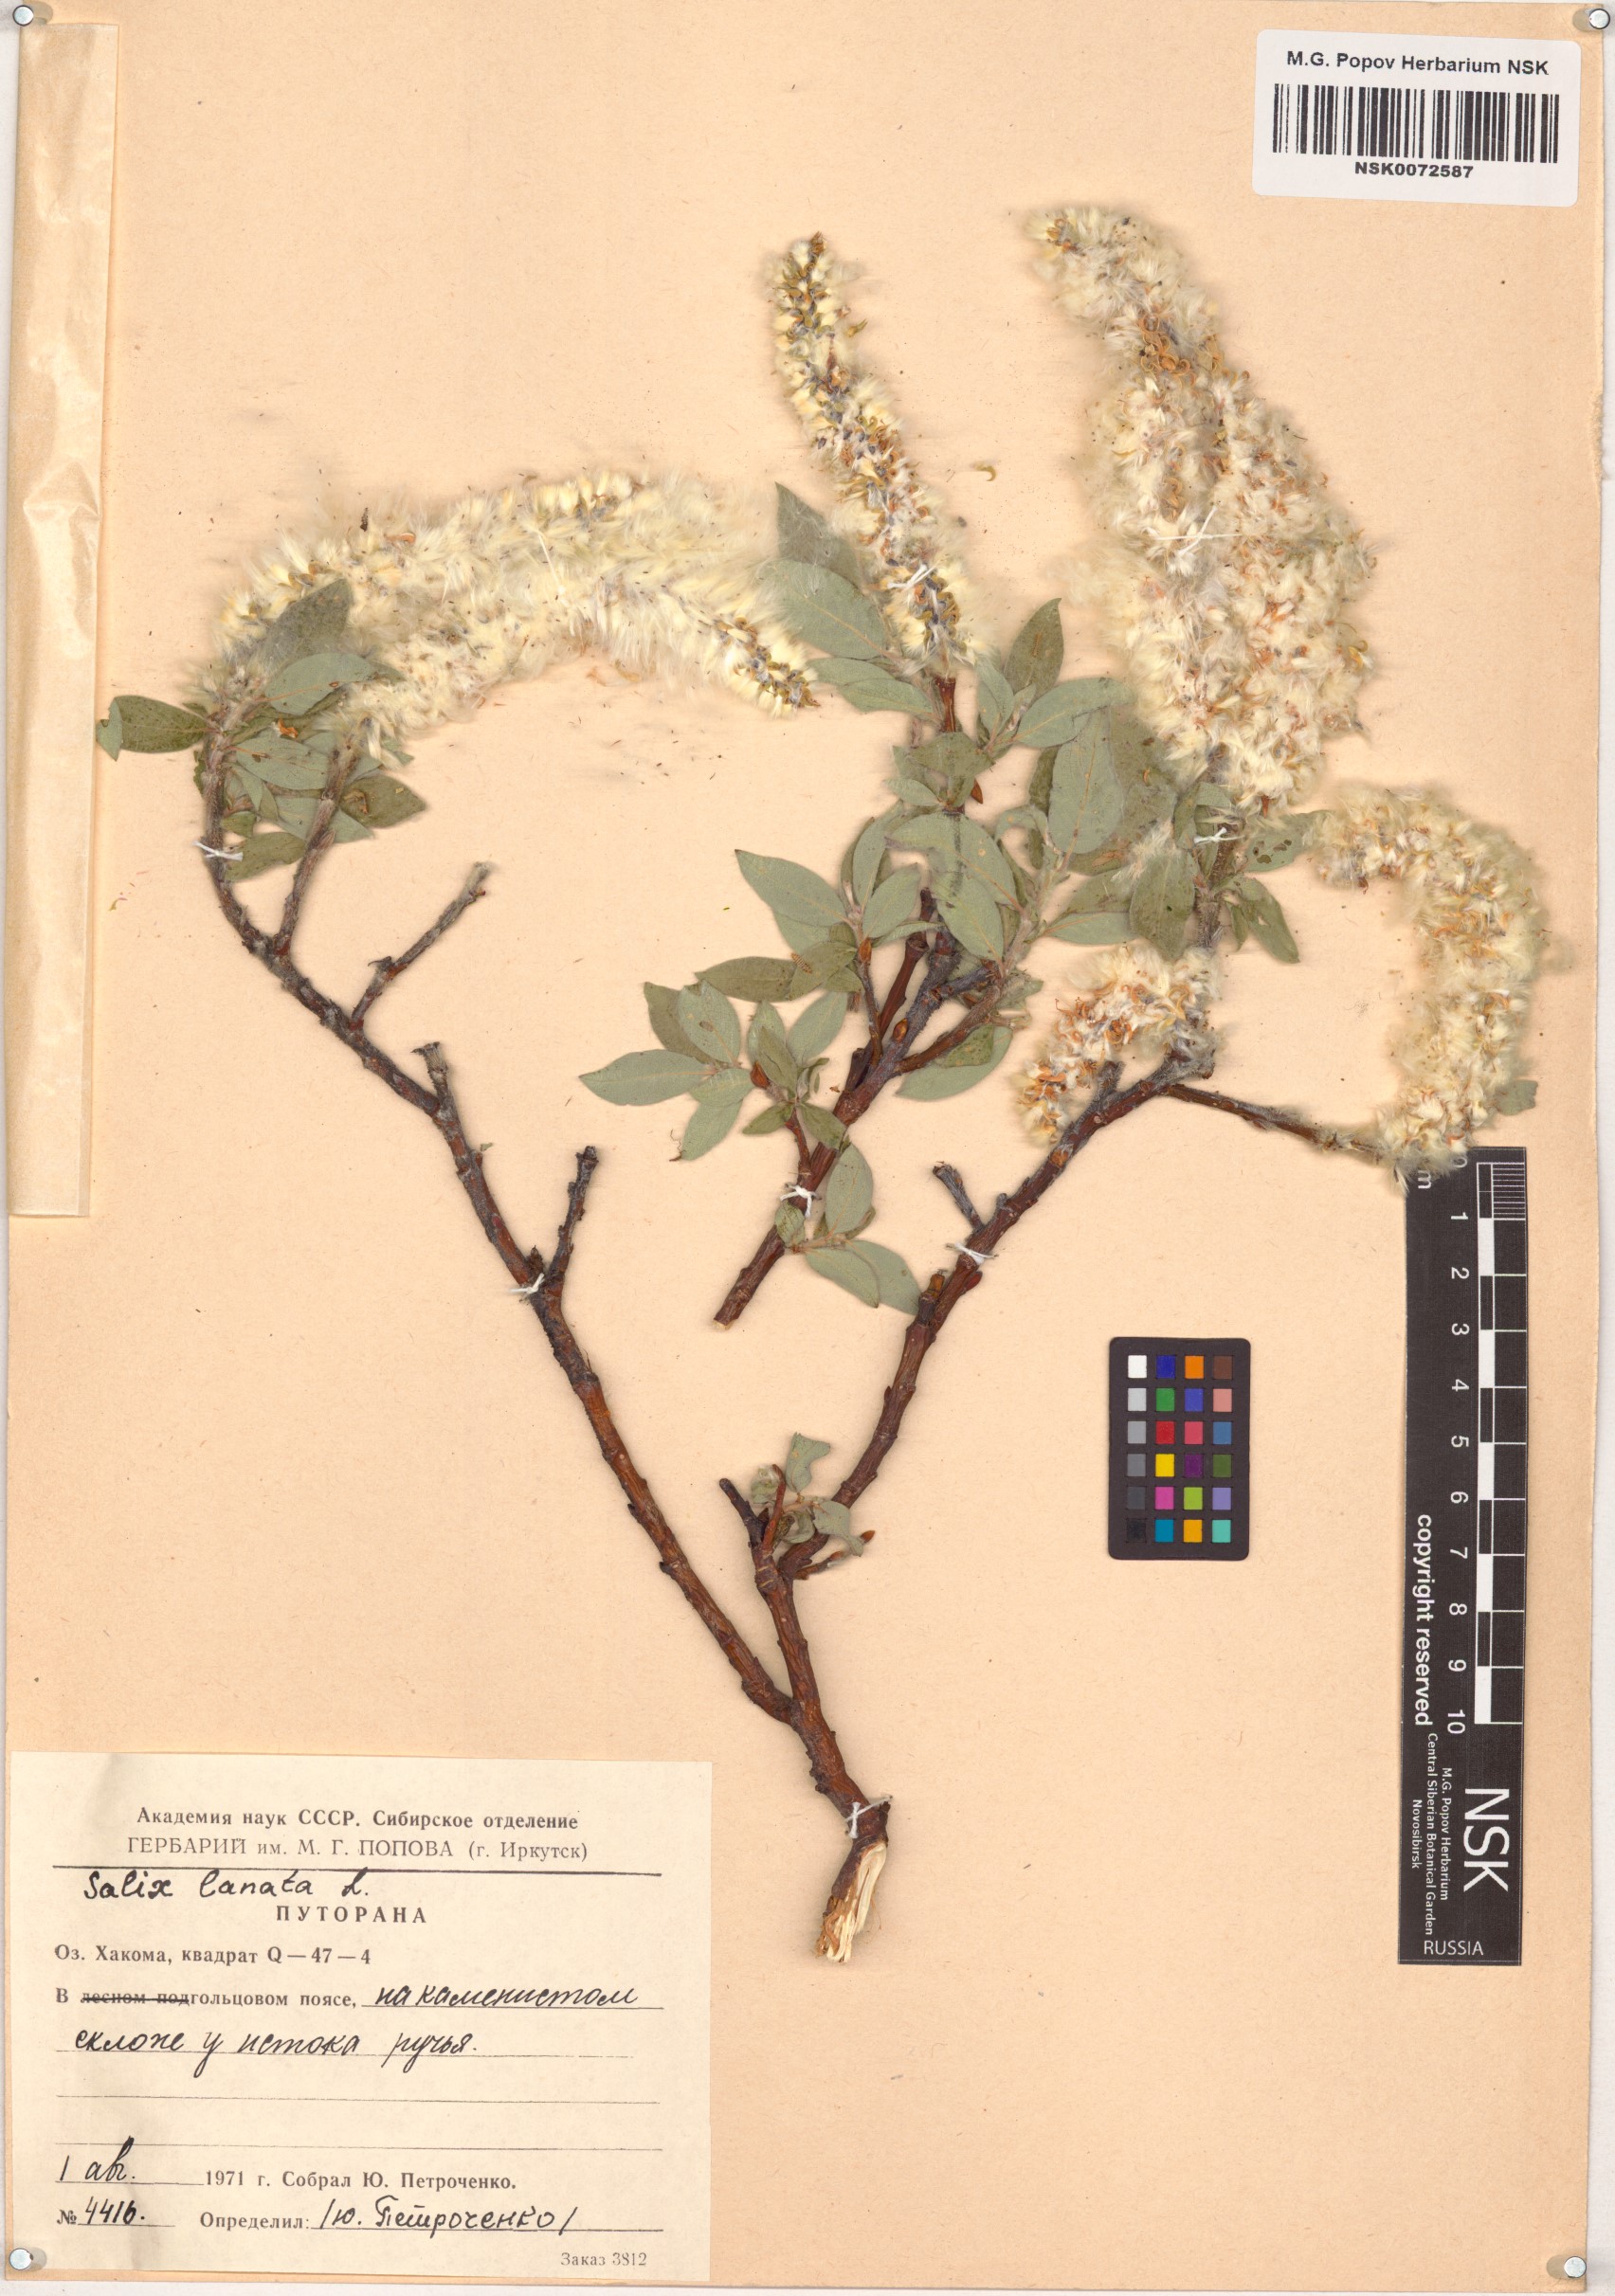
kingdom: Plantae
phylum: Tracheophyta
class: Magnoliopsida
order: Malpighiales
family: Salicaceae
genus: Salix
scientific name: Salix lanata
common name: Woolly willow
